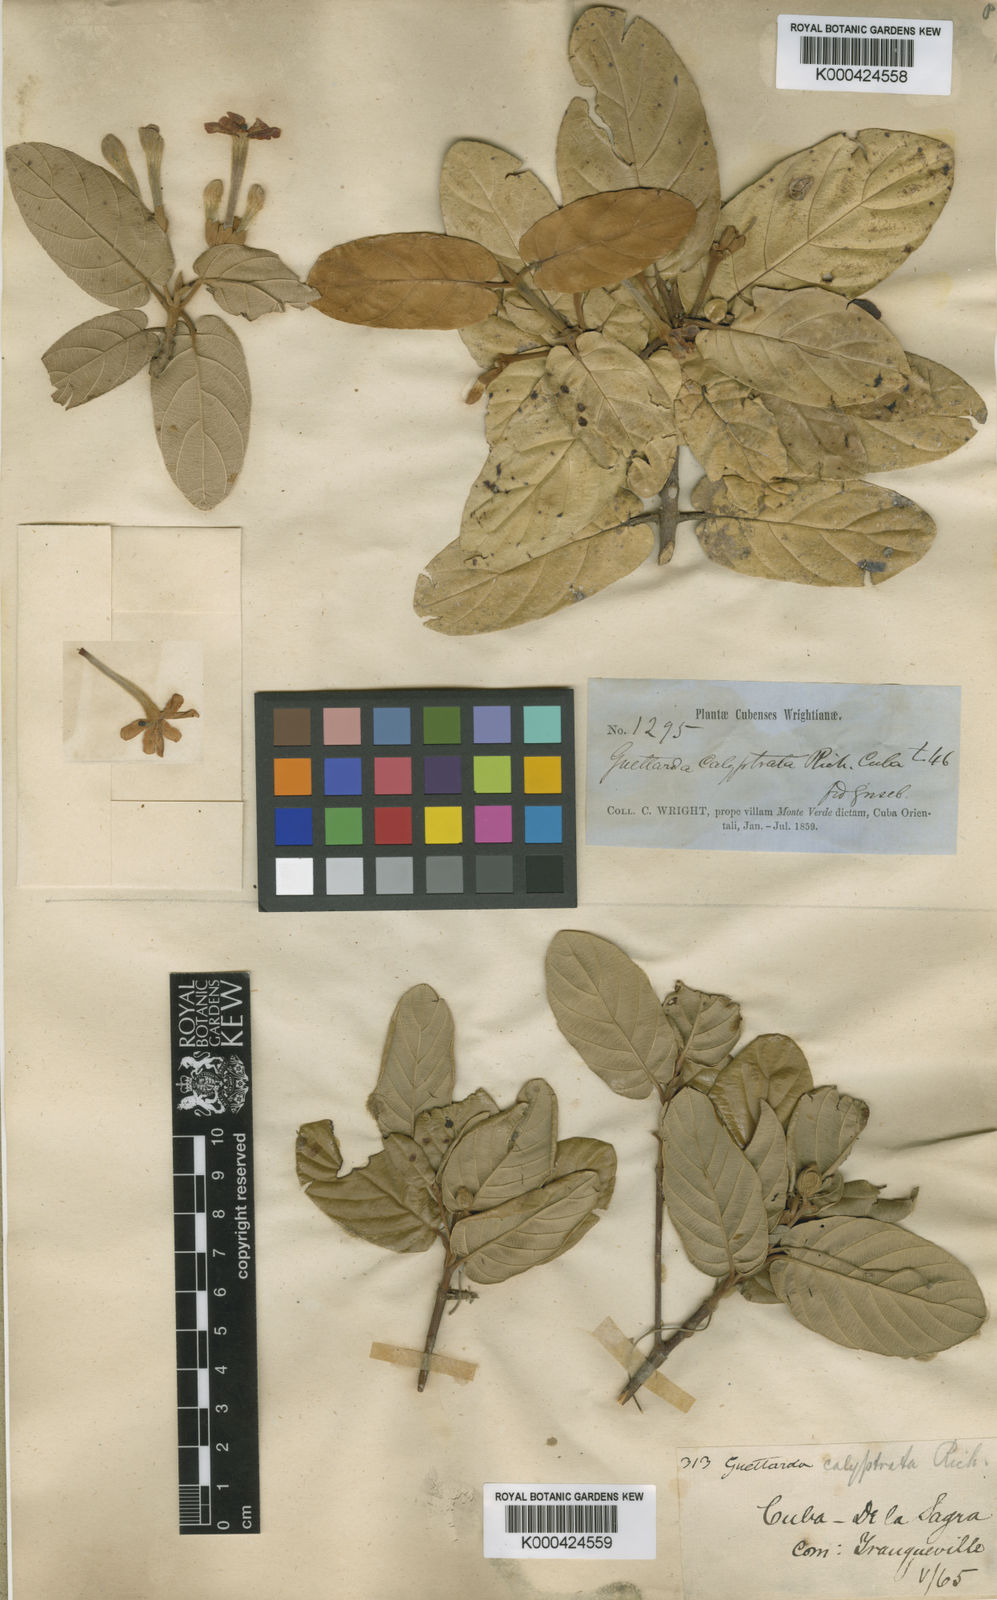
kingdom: Plantae
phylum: Tracheophyta
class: Magnoliopsida
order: Gentianales
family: Rubiaceae
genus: Guettarda
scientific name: Guettarda calyptrata
